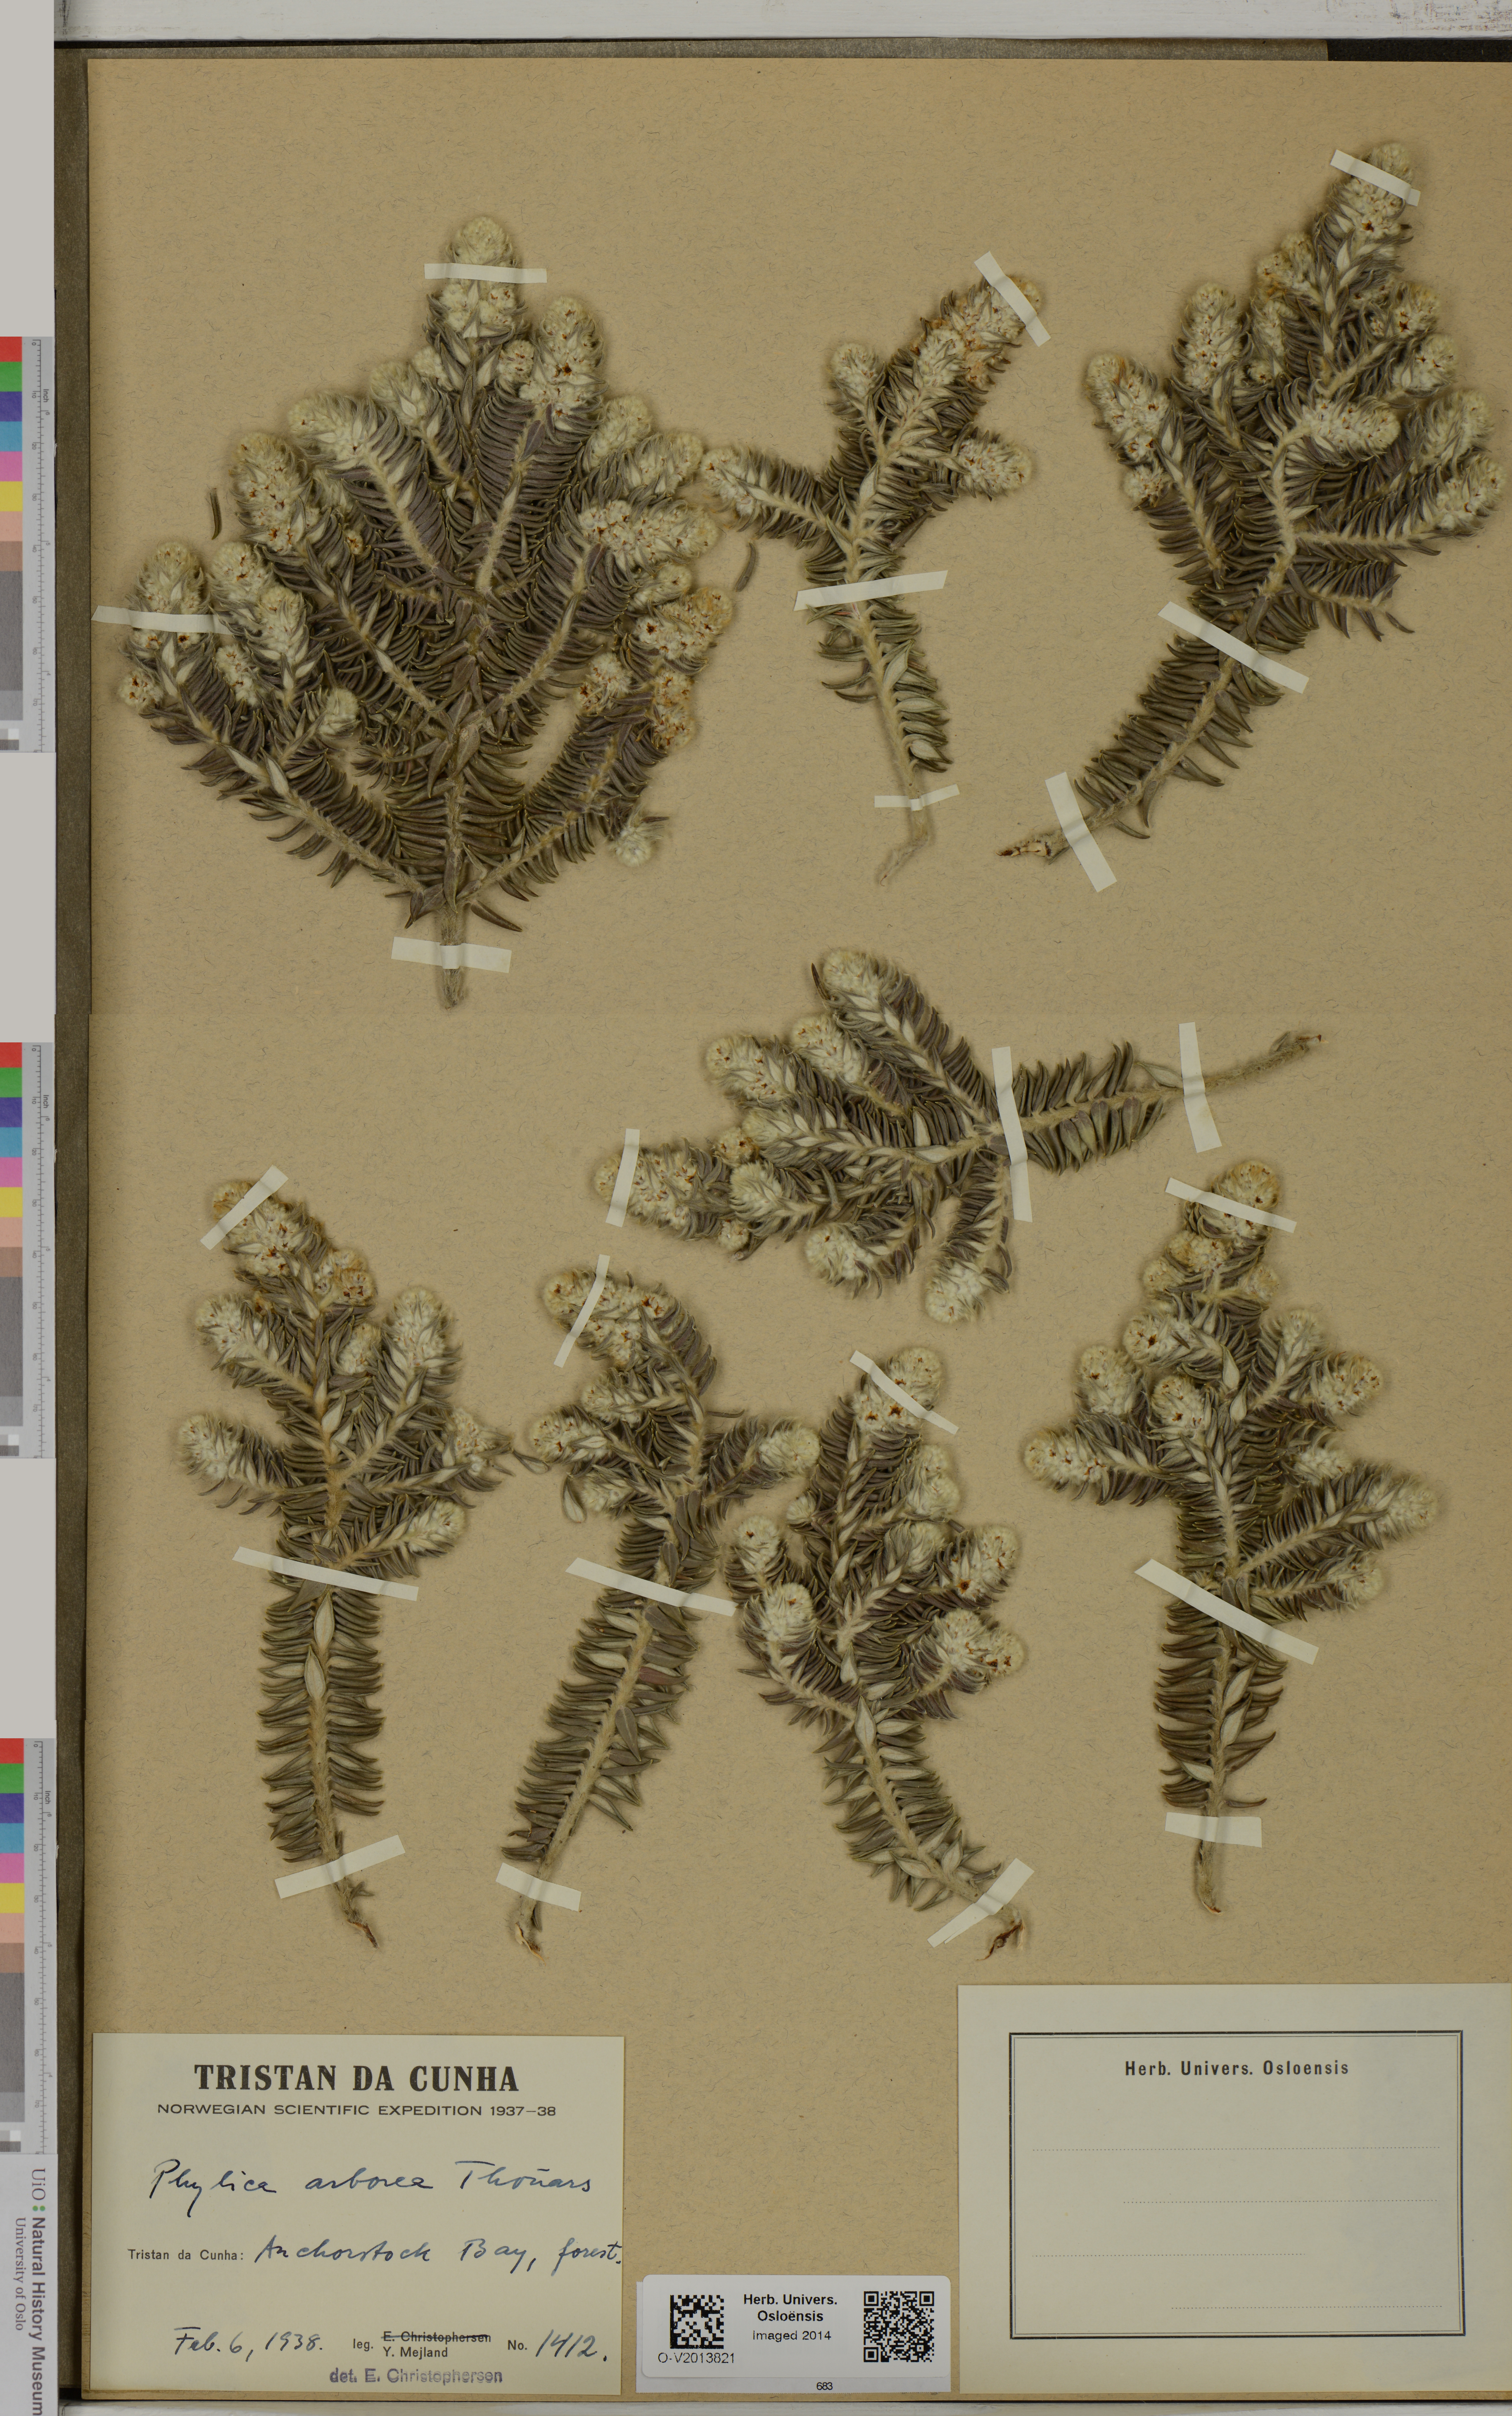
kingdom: Plantae
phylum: Tracheophyta
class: Magnoliopsida
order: Rosales
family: Rhamnaceae
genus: Phylica
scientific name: Phylica arborea
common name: Island cape myrtle
